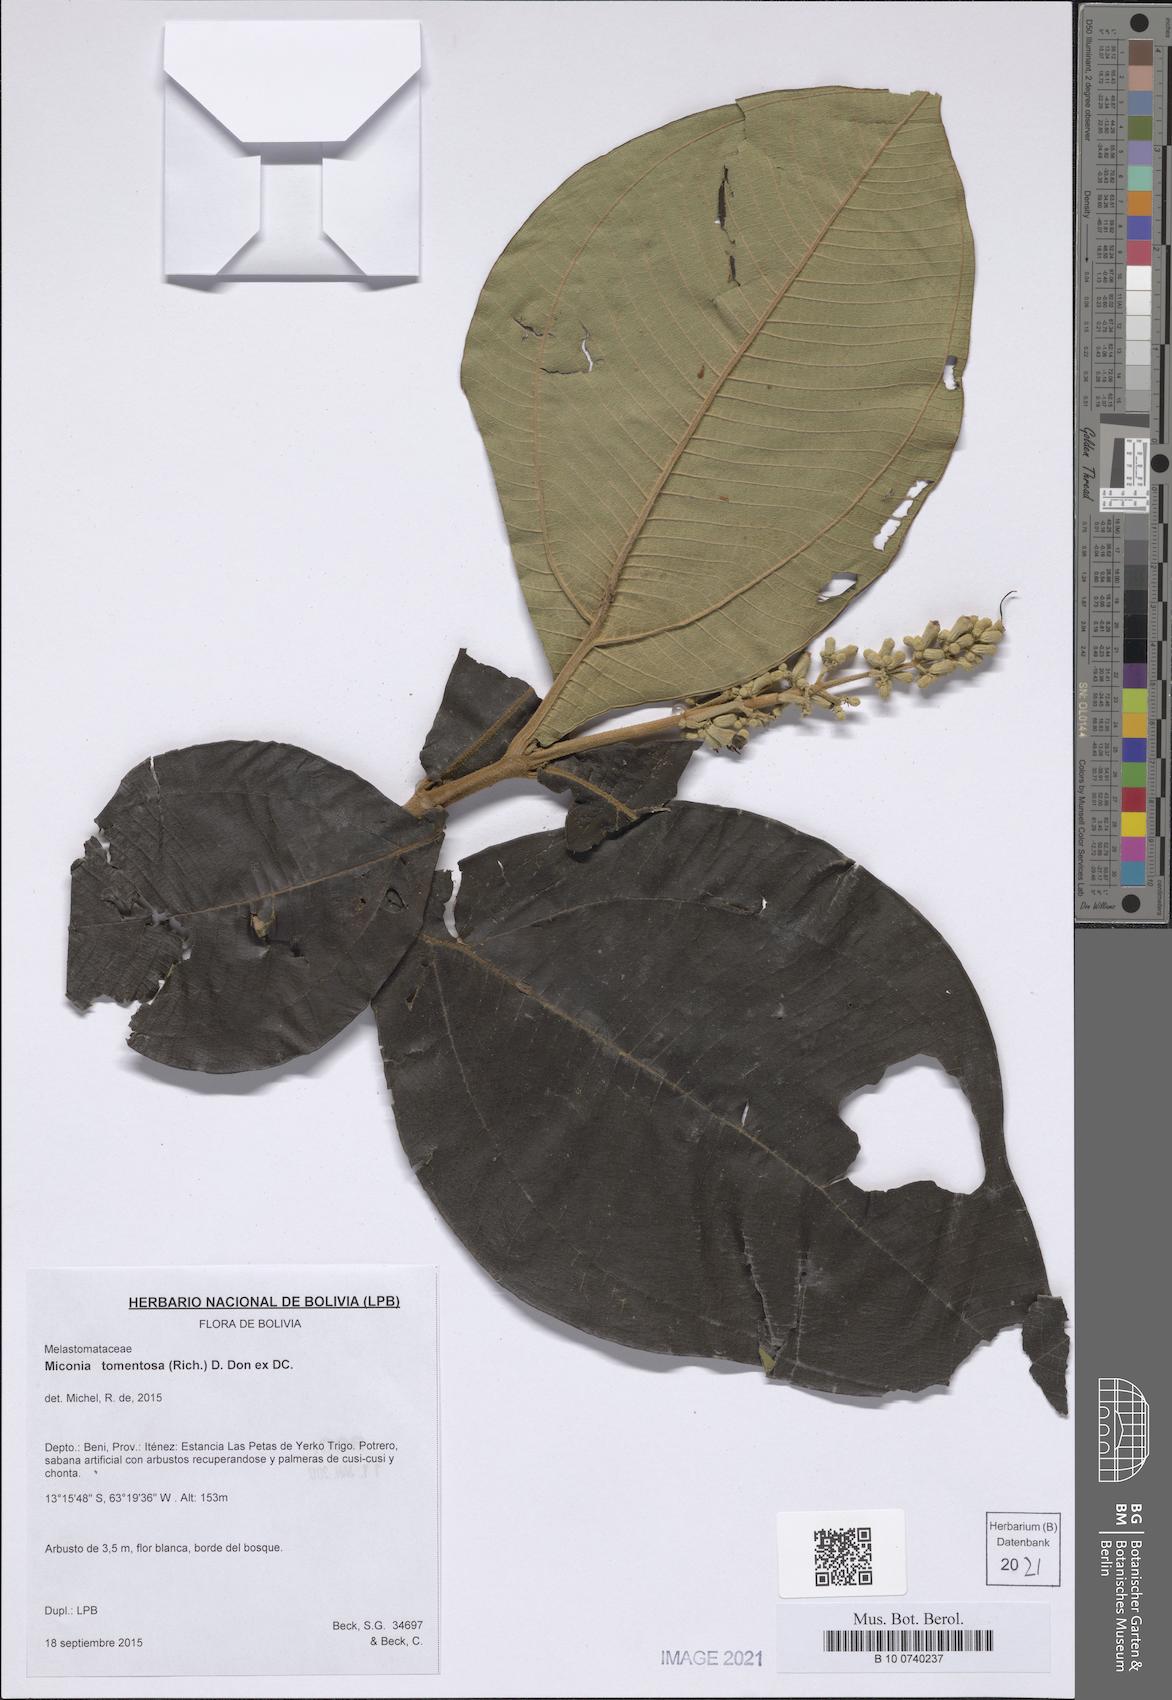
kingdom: Plantae
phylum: Tracheophyta
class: Magnoliopsida
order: Myrtales
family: Melastomataceae
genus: Miconia
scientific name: Miconia tomentosa
